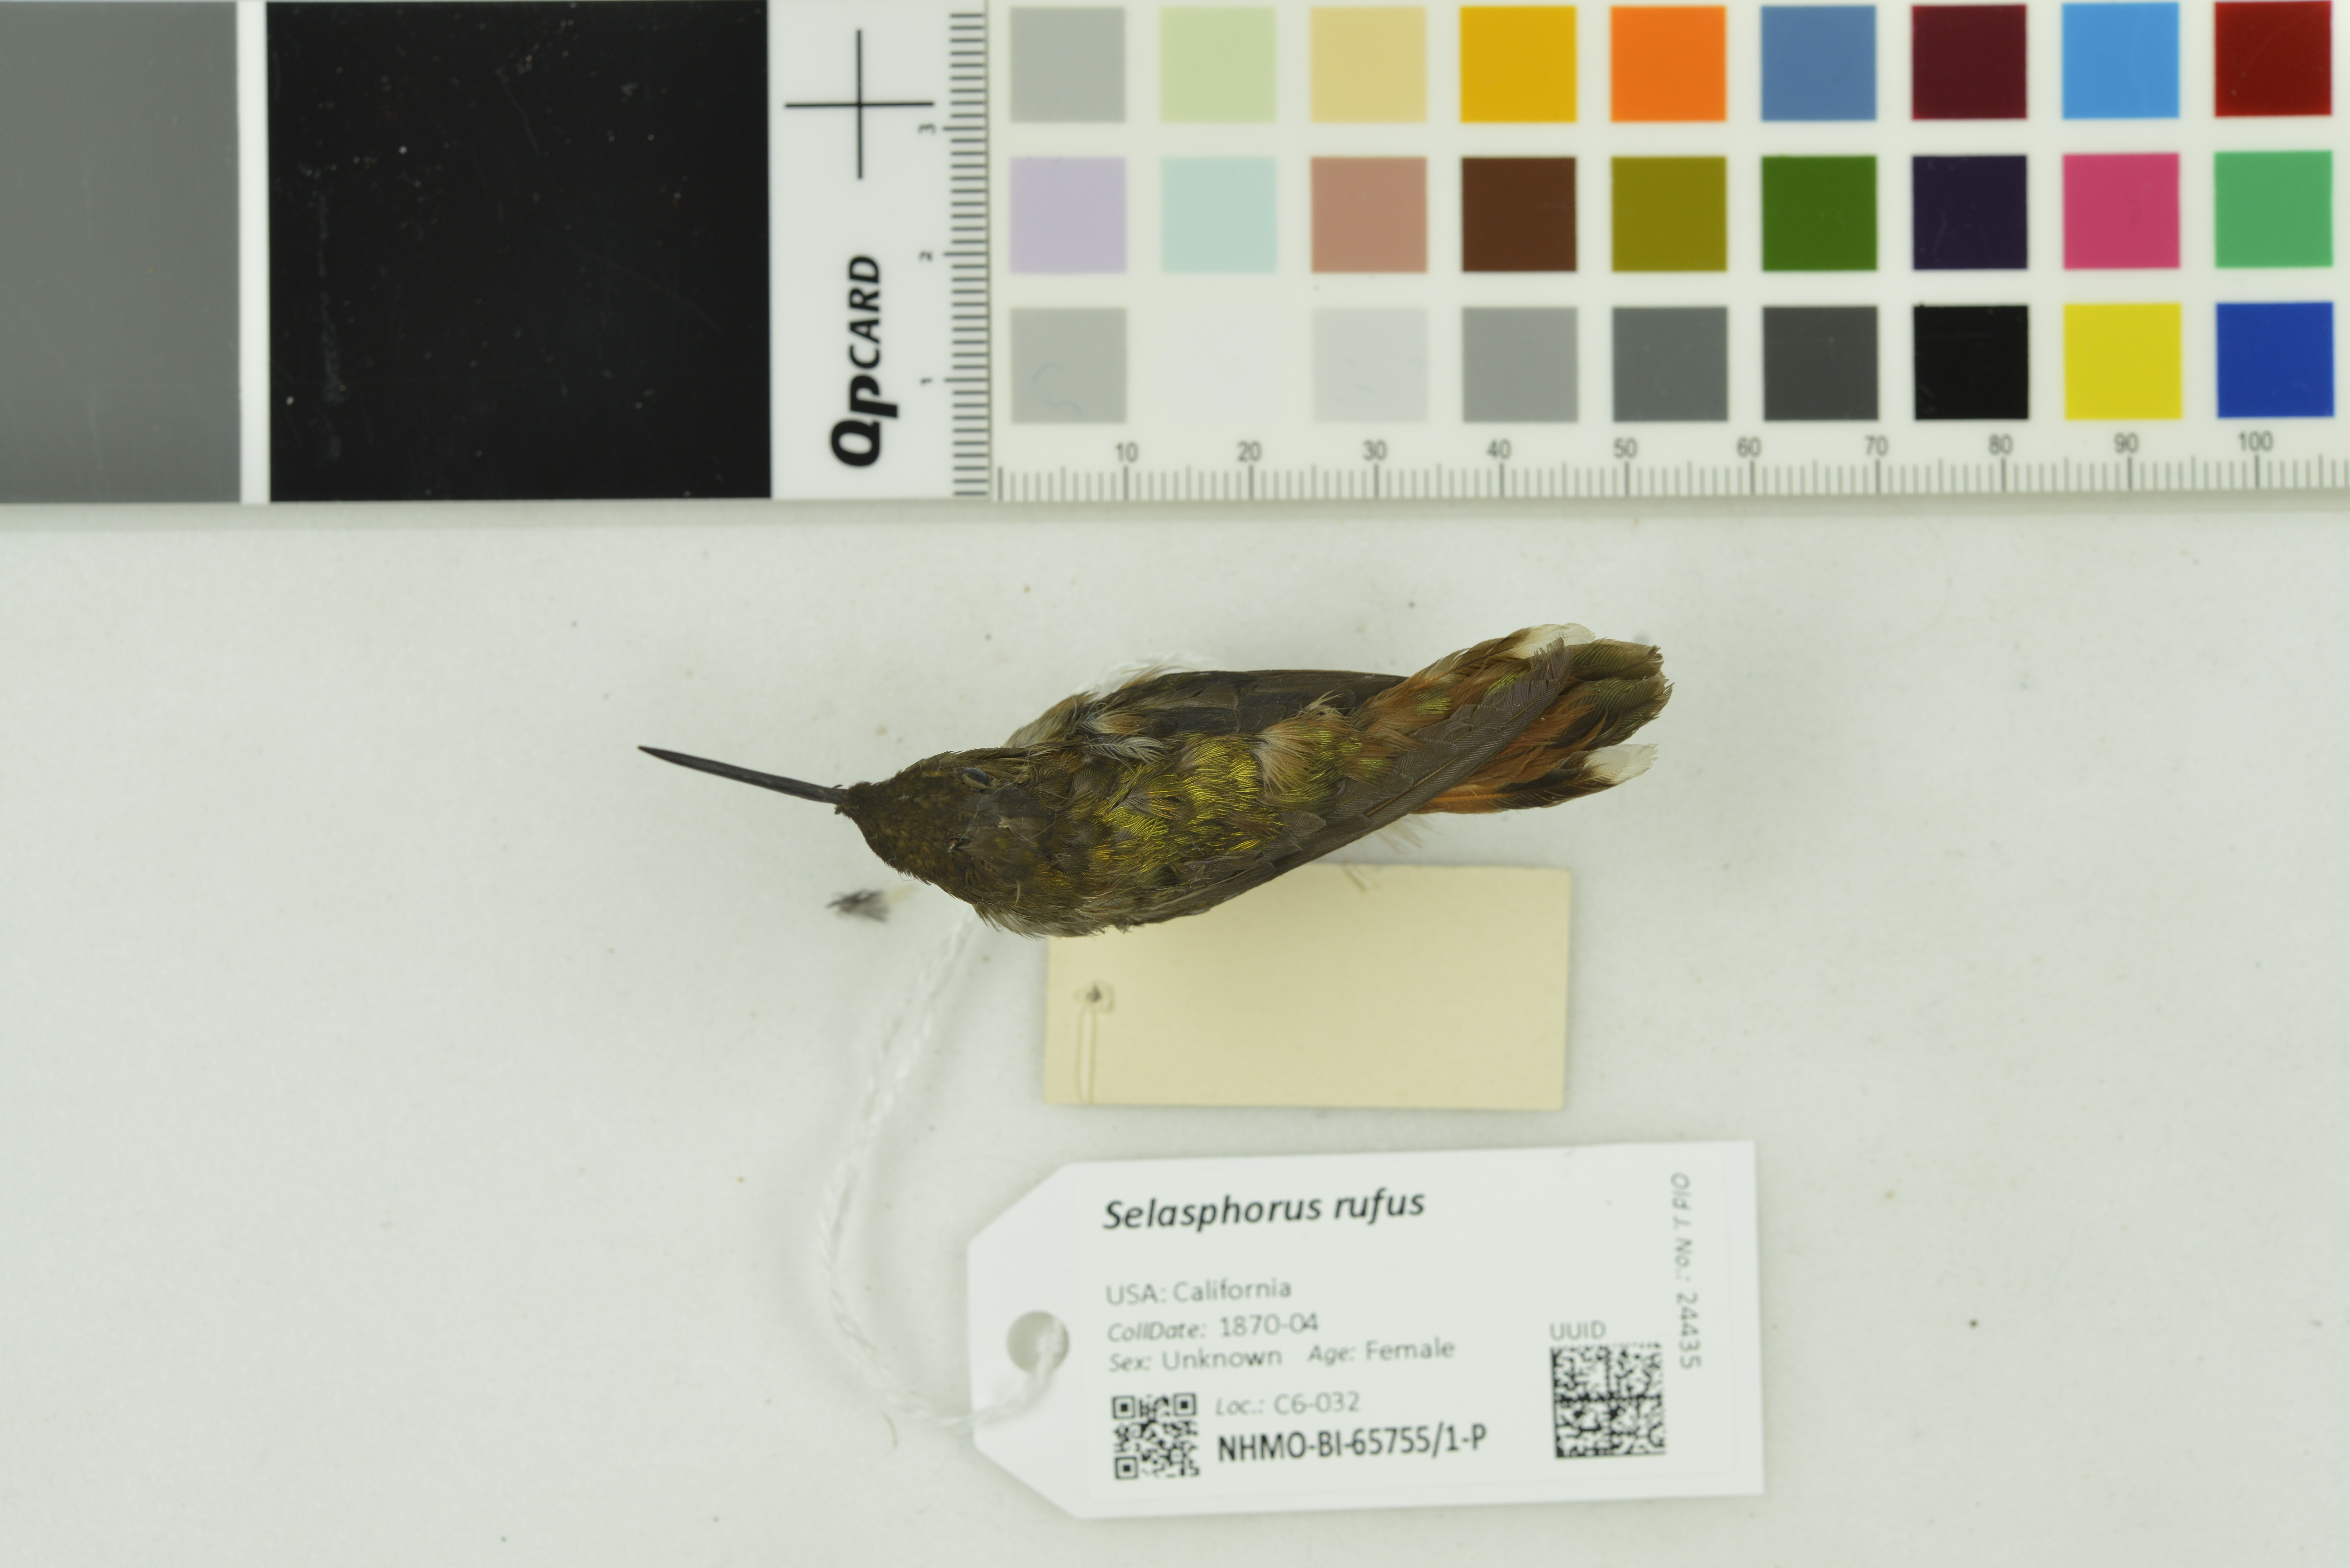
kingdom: Animalia
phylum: Chordata
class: Aves
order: Apodiformes
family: Trochilidae
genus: Selasphorus
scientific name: Selasphorus rufus
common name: Rufous hummingbird
